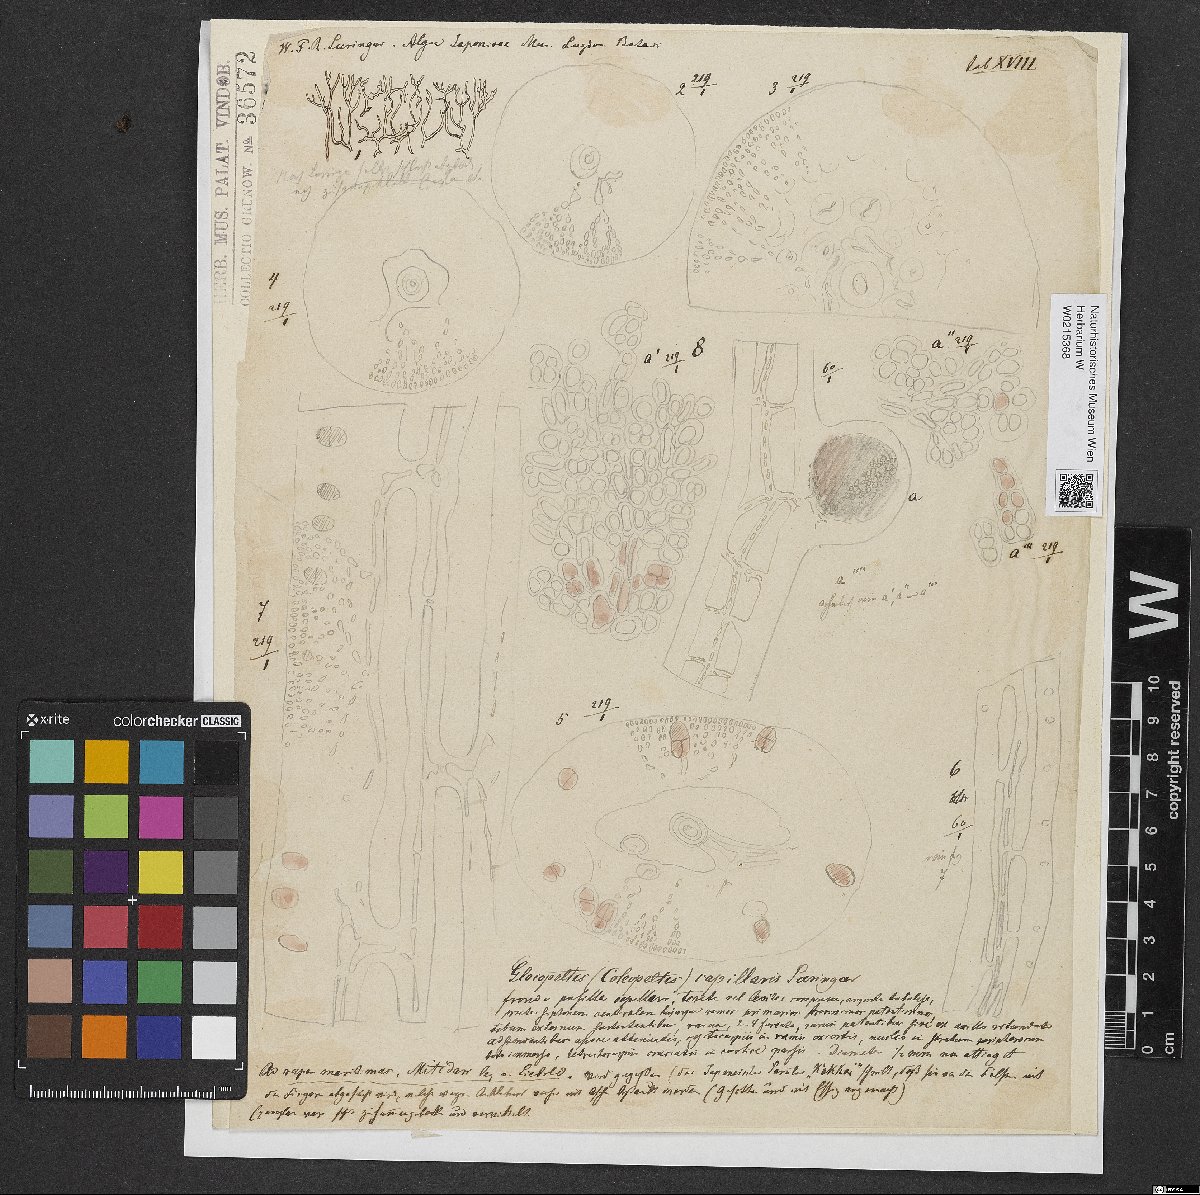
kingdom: Plantae
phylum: Rhodophyta
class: Florideophyceae
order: Gigartinales
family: Endocladiaceae
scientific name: Endocladiaceae
